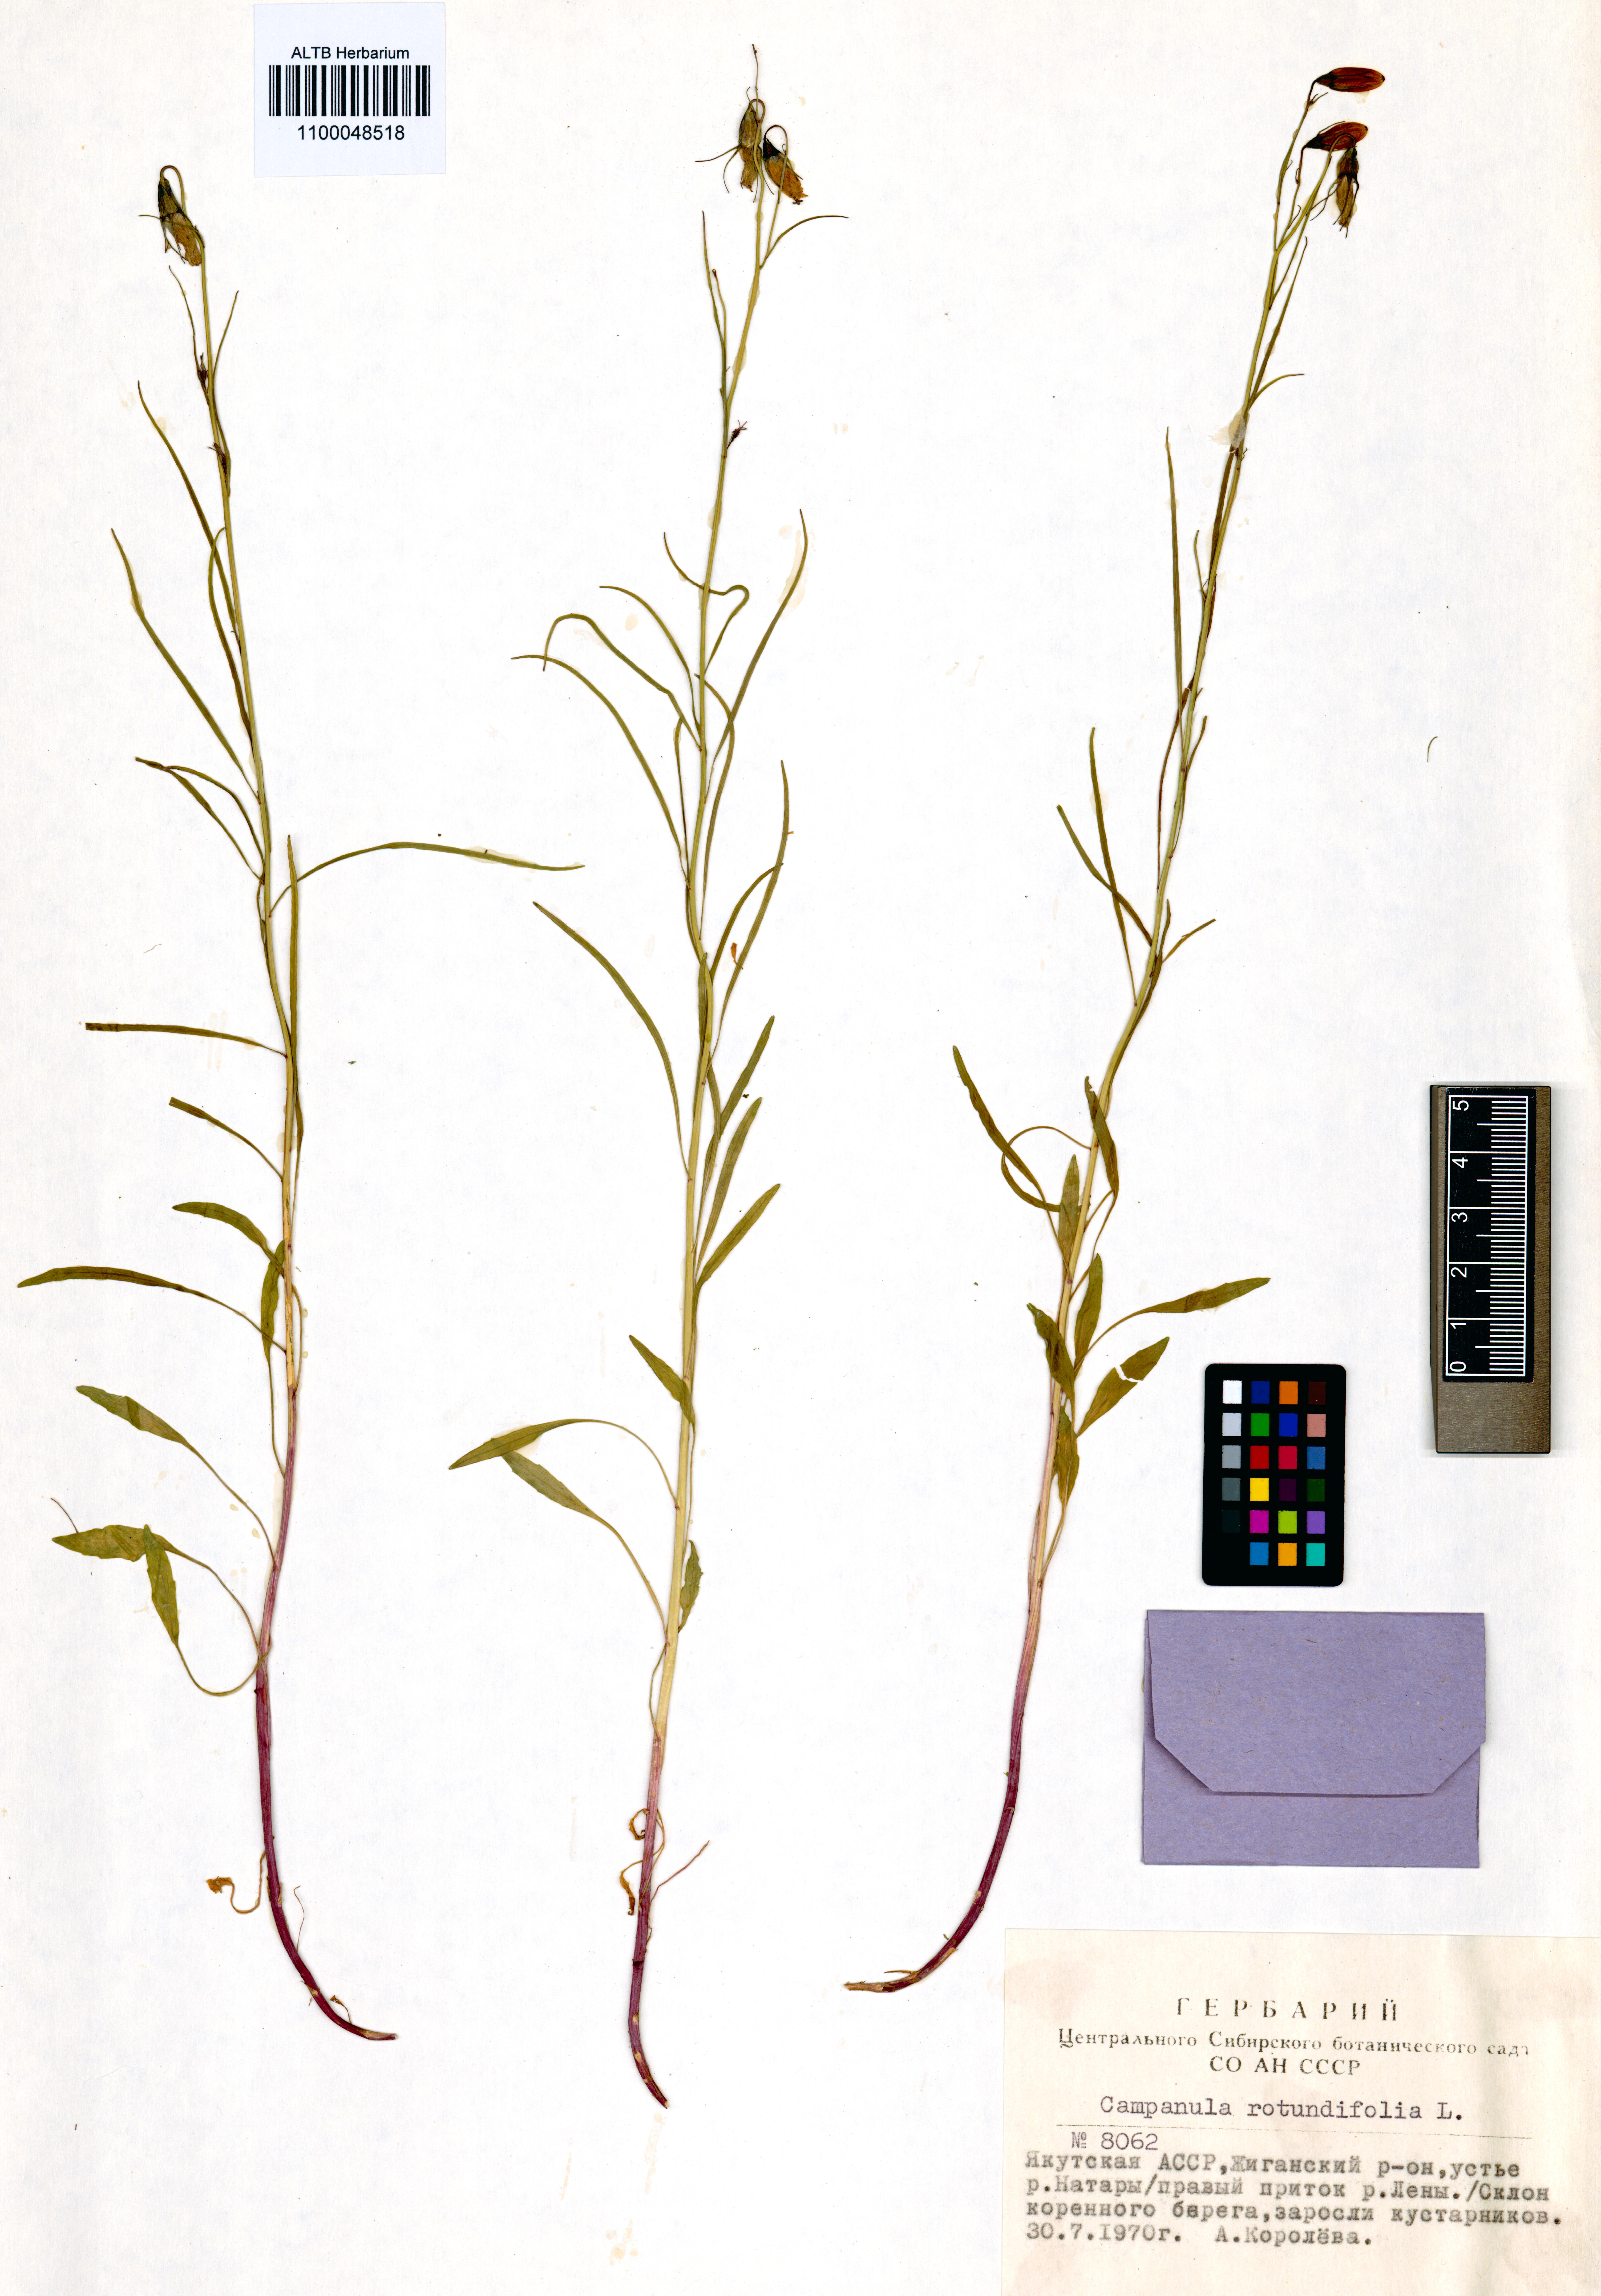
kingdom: Plantae
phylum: Tracheophyta
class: Magnoliopsida
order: Asterales
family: Campanulaceae
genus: Campanula
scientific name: Campanula rotundifolia
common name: Harebell
